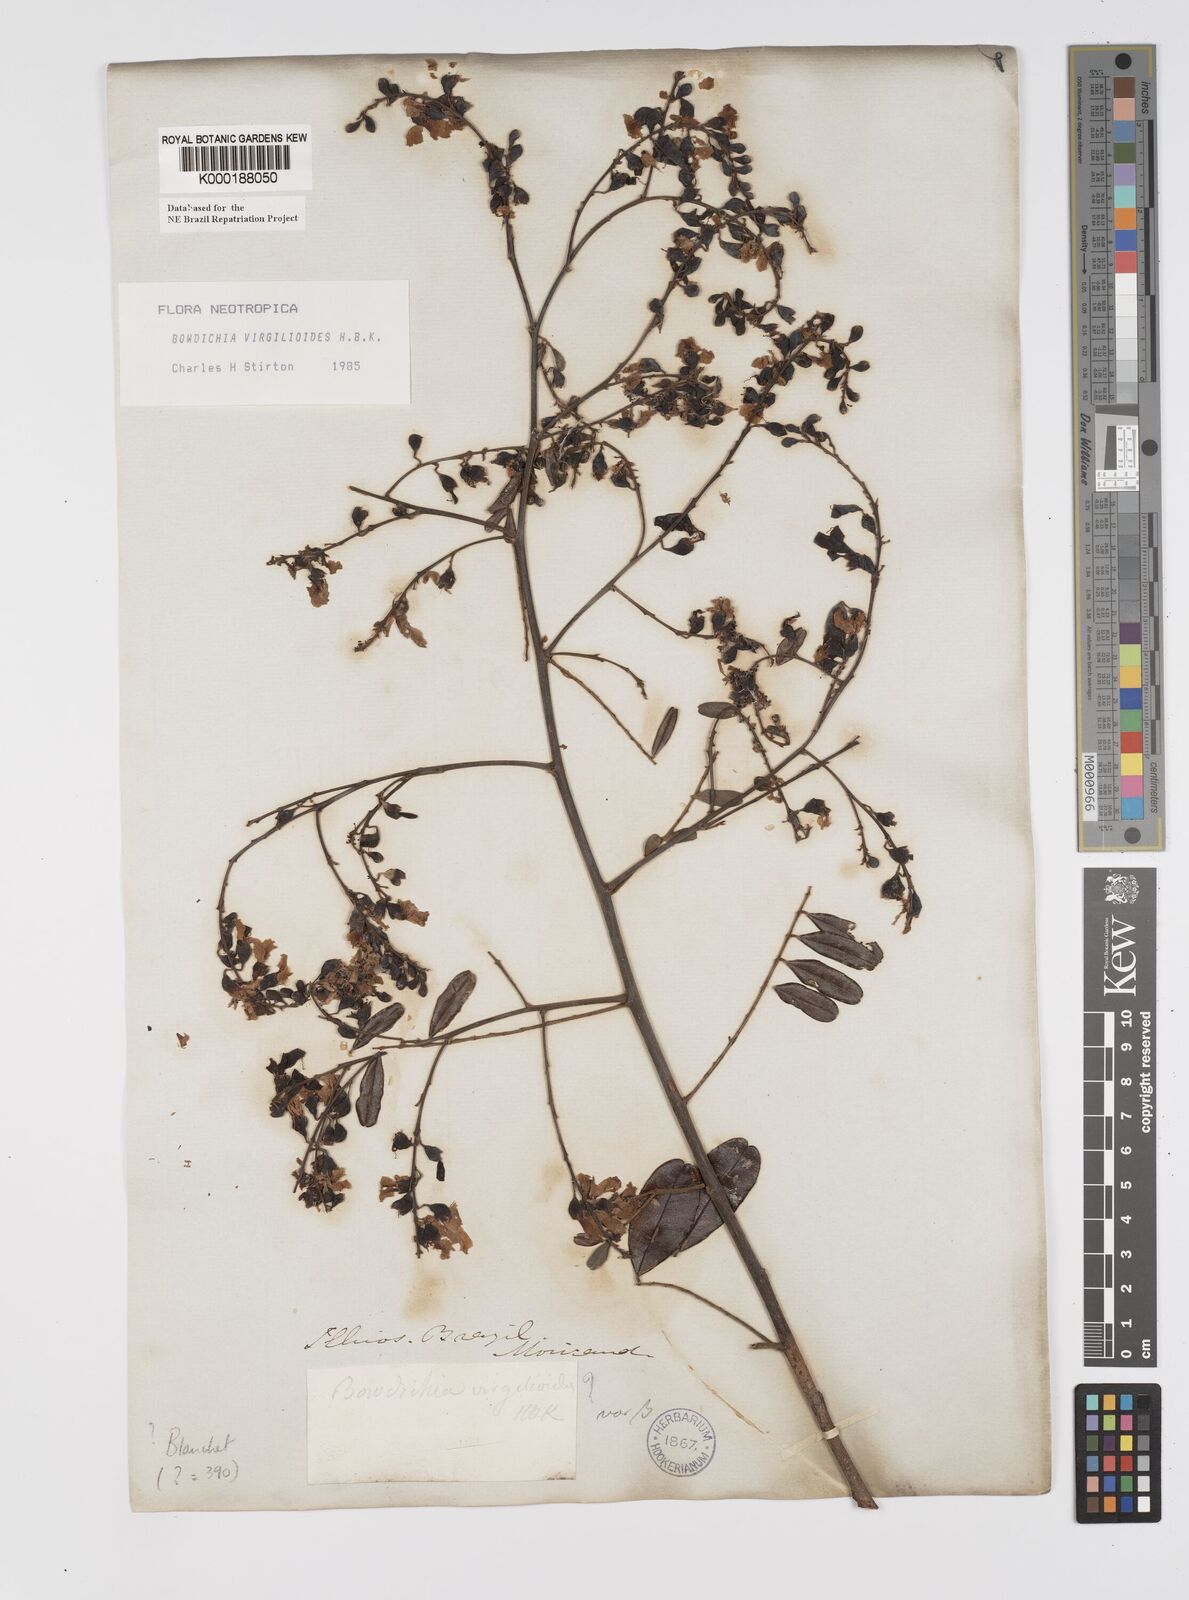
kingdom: Plantae
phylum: Tracheophyta
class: Magnoliopsida
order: Fabales
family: Fabaceae
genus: Bowdichia
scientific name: Bowdichia virgilioides
